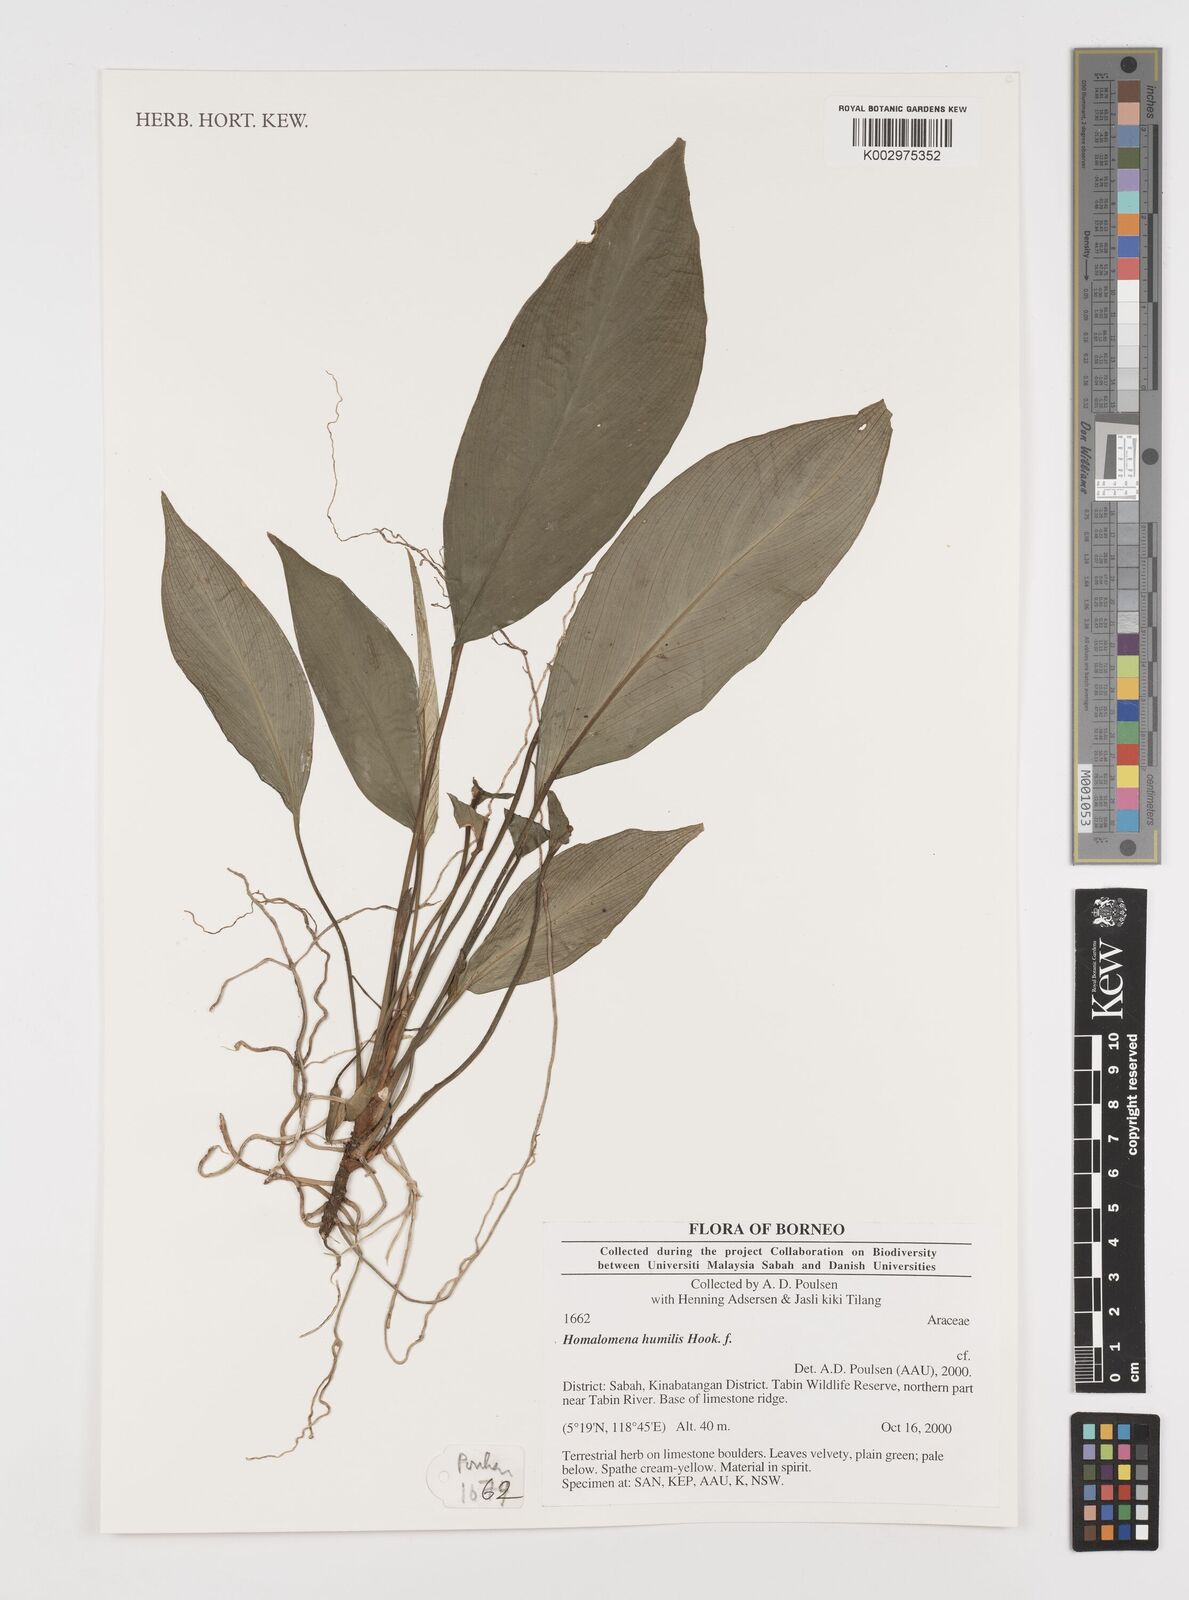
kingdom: Plantae
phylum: Tracheophyta
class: Liliopsida
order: Alismatales
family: Araceae
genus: Homalomena
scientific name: Homalomena humilis
